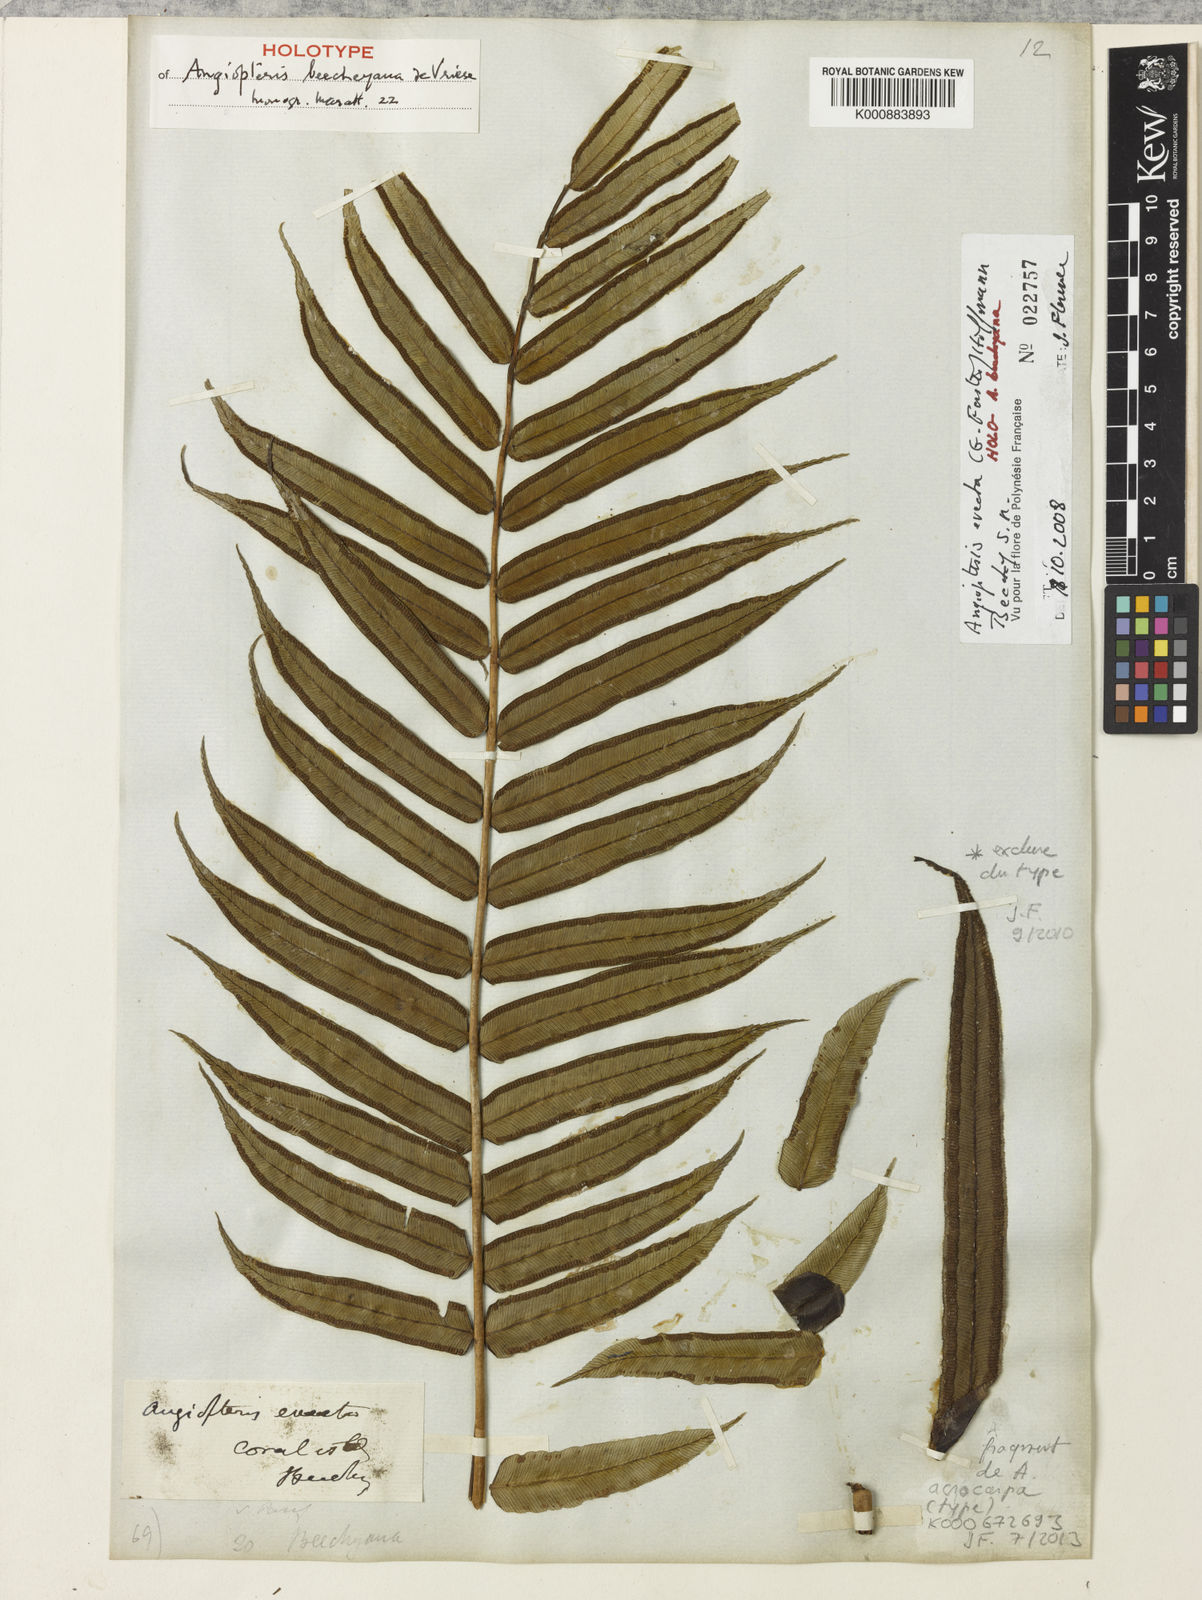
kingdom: Plantae
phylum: Tracheophyta
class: Polypodiopsida
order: Marattiales
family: Marattiaceae
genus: Angiopteris
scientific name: Angiopteris evecta
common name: Mule's-foot fern
